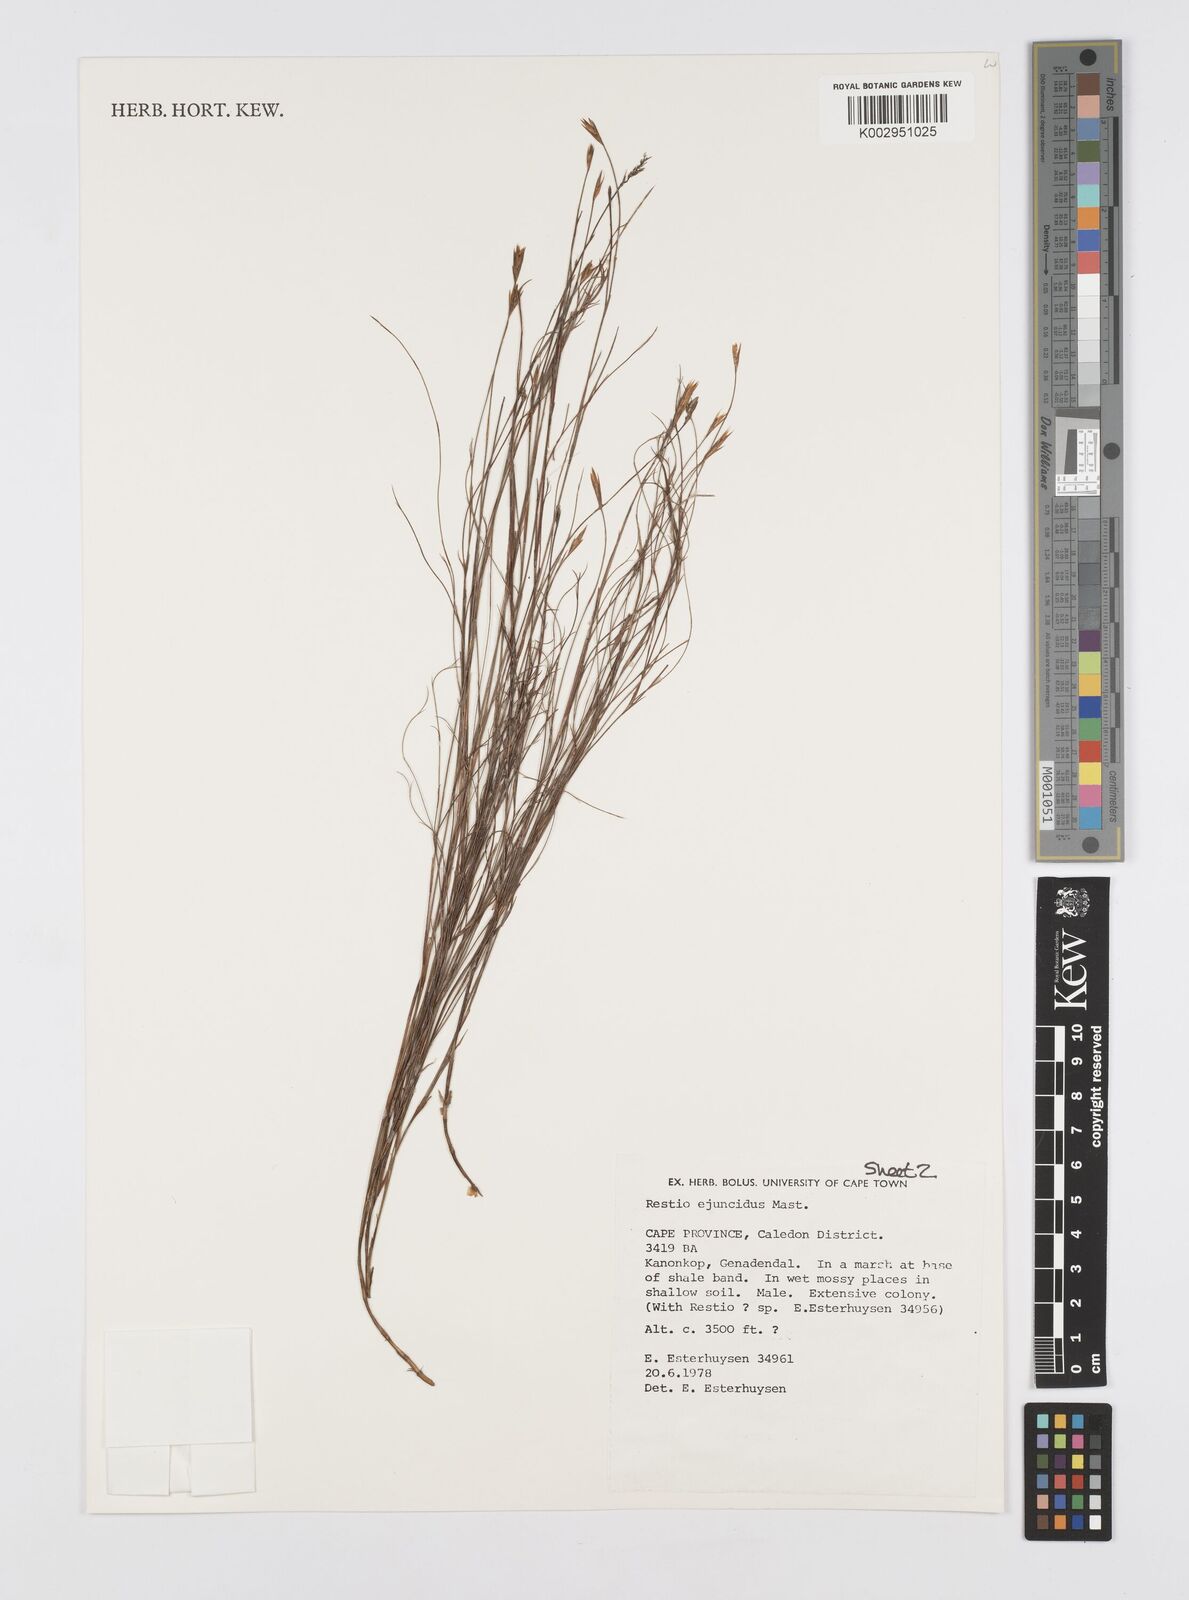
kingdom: Plantae
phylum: Tracheophyta
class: Liliopsida
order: Poales
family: Restionaceae
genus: Restio
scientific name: Restio ejuncidus
